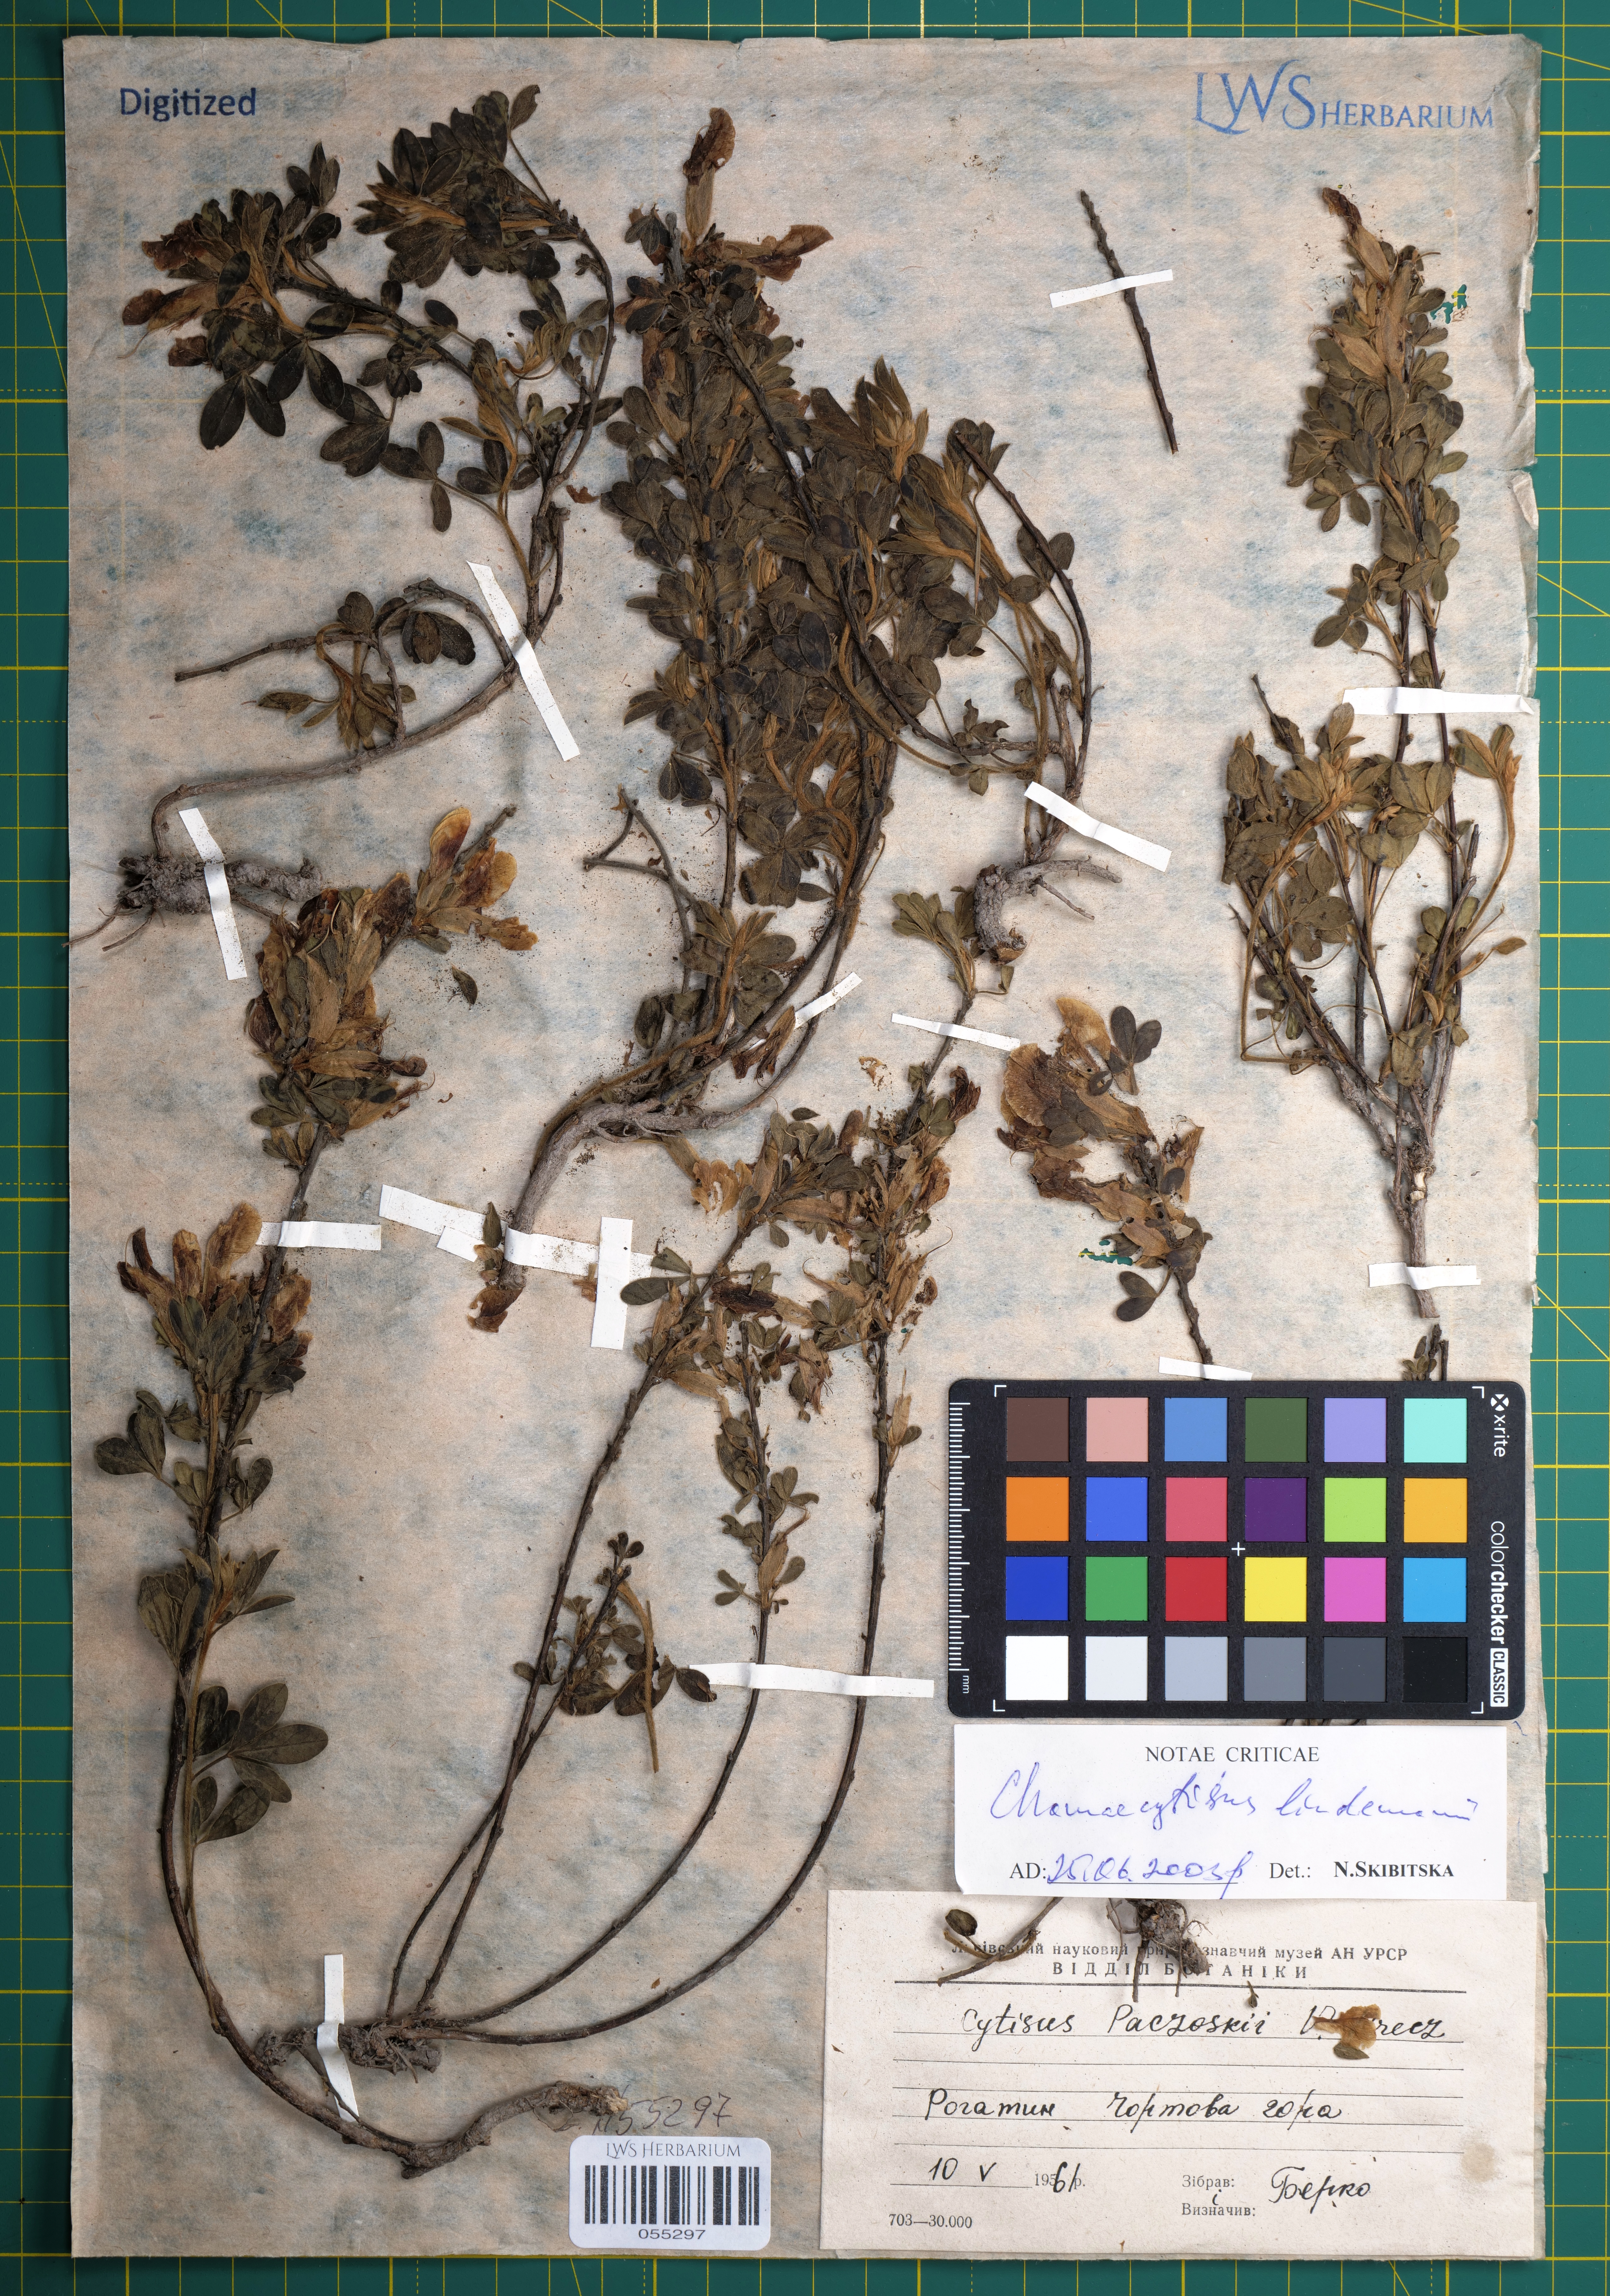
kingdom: Plantae
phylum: Tracheophyta
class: Magnoliopsida
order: Fabales
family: Fabaceae
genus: Chamaecytisus
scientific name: Chamaecytisus lindemannii
